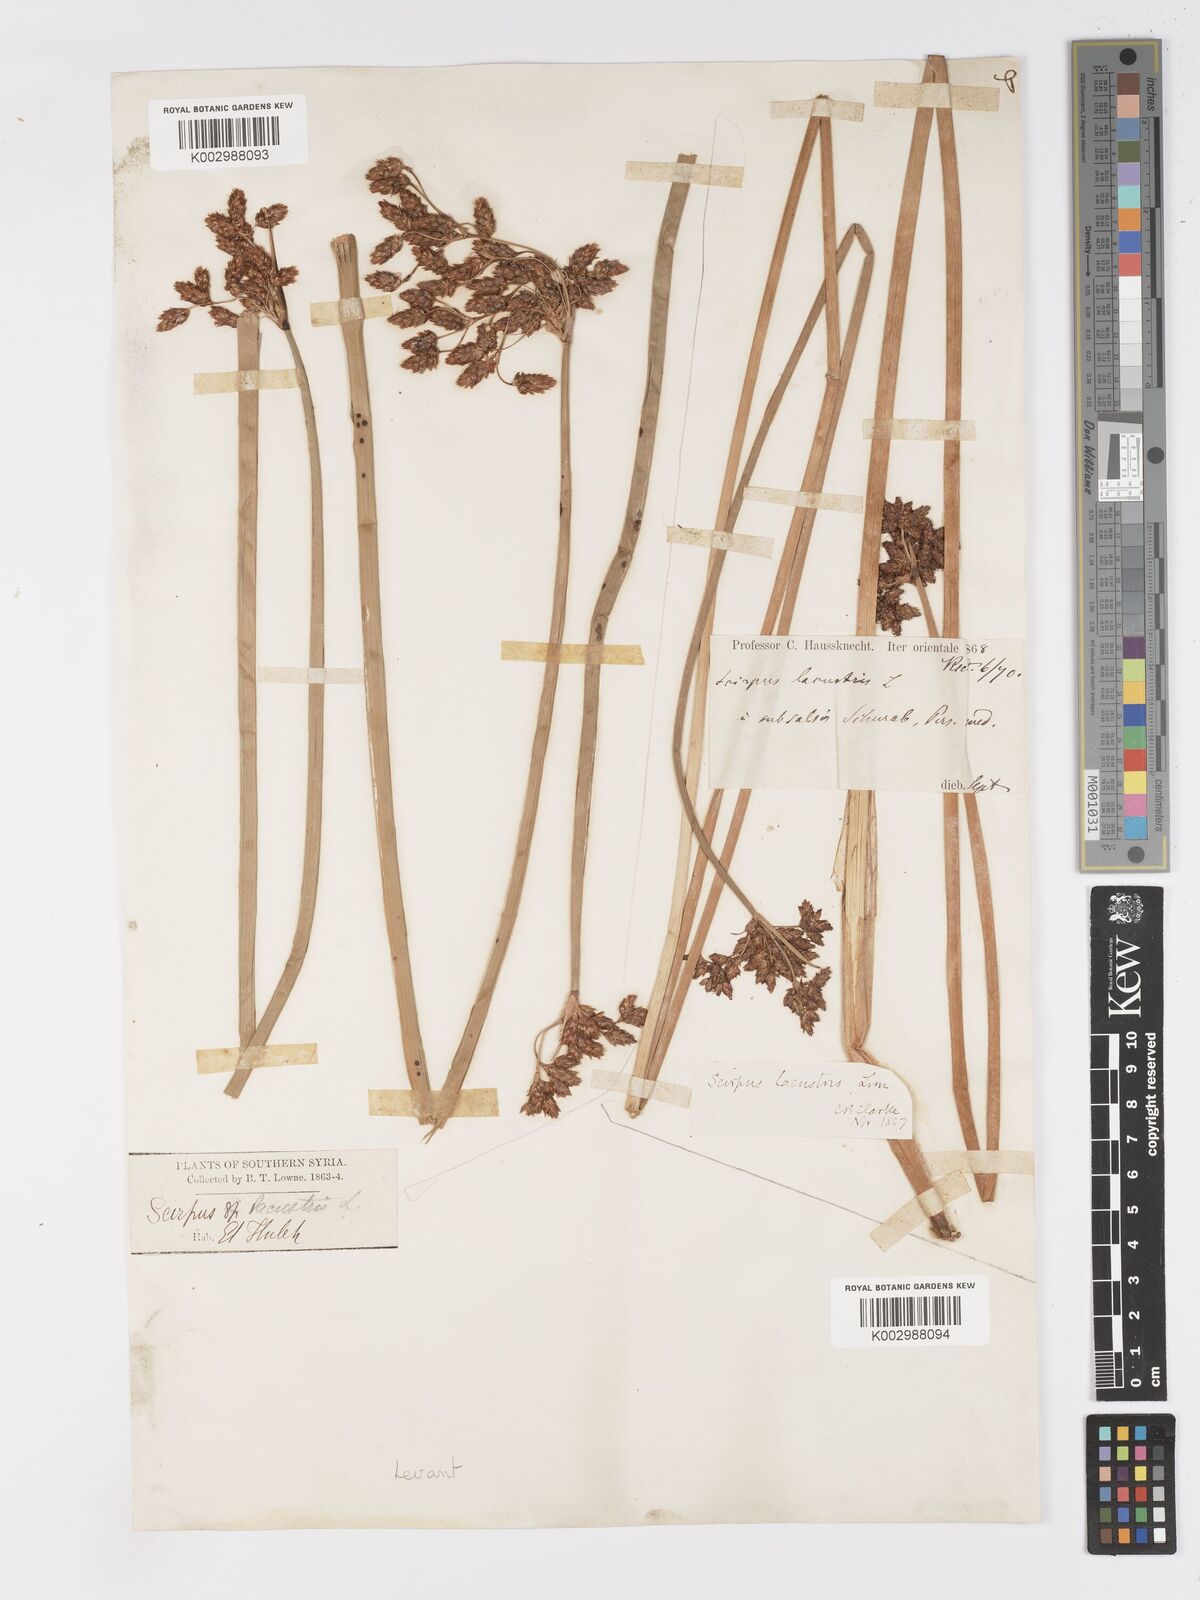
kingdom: Plantae
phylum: Tracheophyta
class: Liliopsida
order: Poales
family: Cyperaceae
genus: Schoenoplectus
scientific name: Schoenoplectus lacustris
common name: Common club-rush
